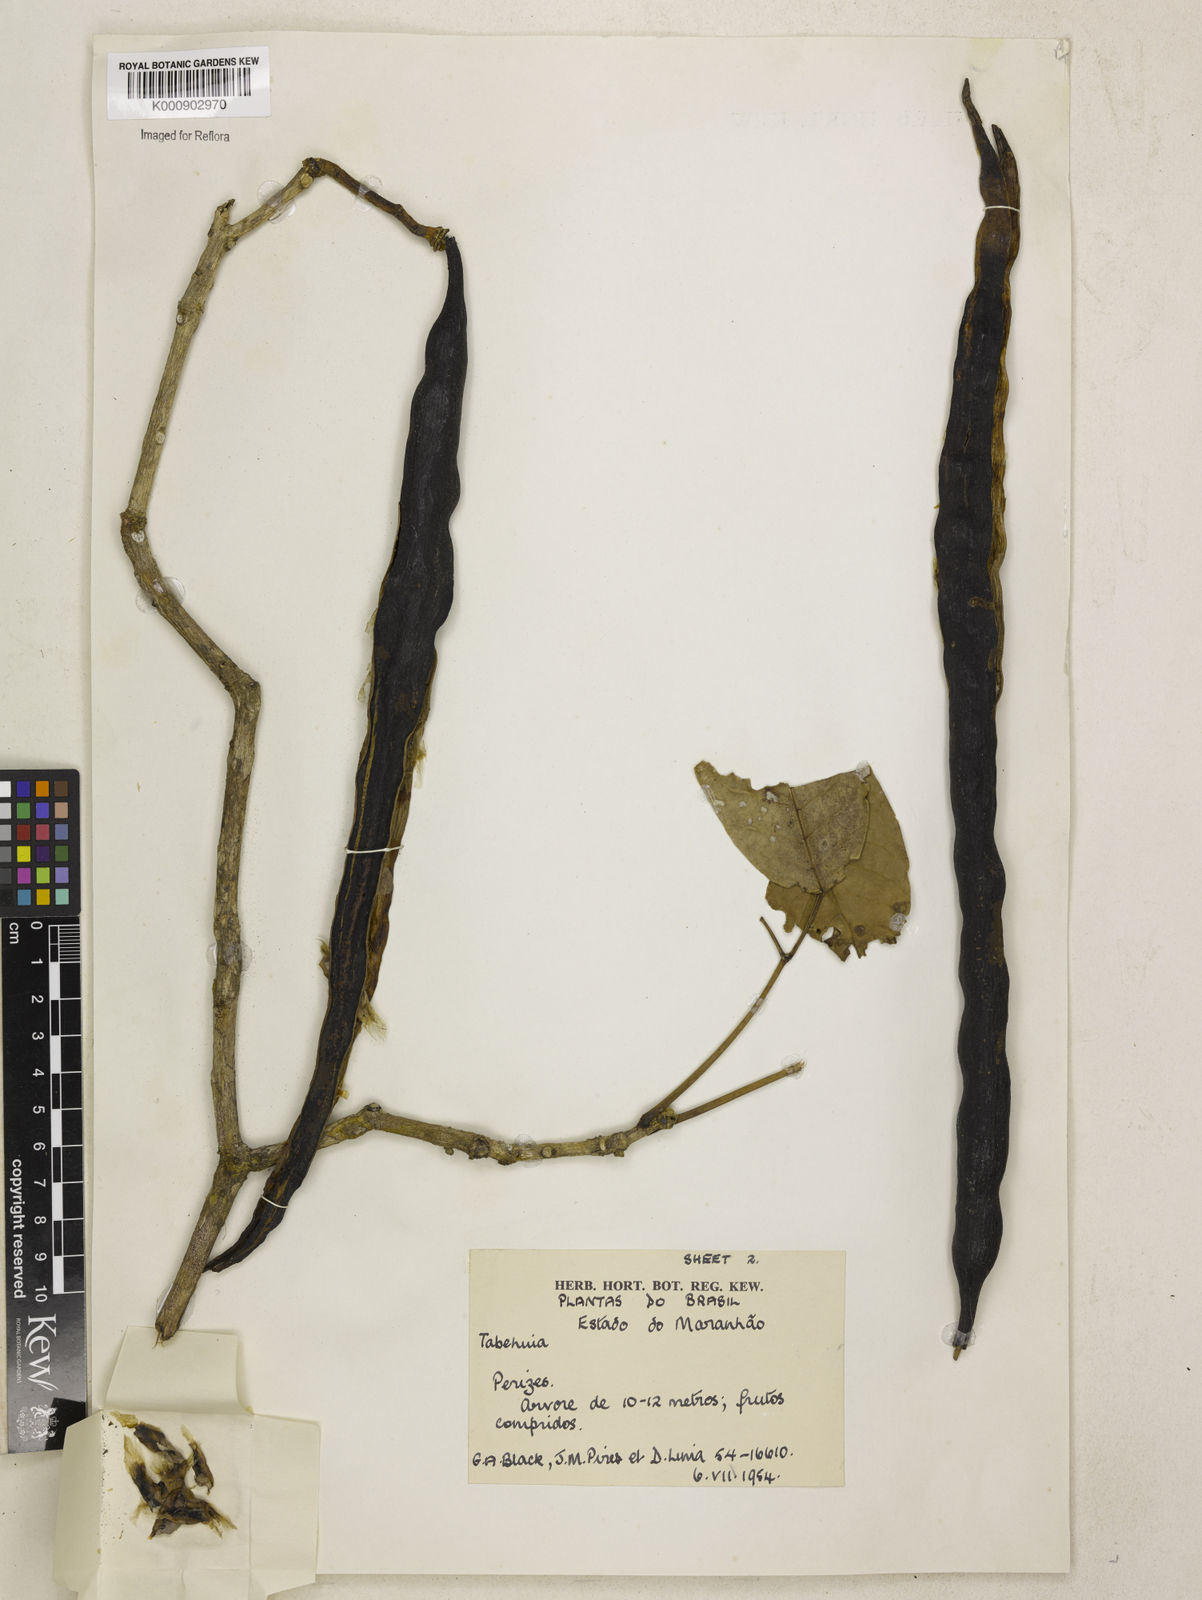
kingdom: Plantae
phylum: Tracheophyta
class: Magnoliopsida
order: Lamiales
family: Bignoniaceae
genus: Tabebuia
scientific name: Tabebuia
